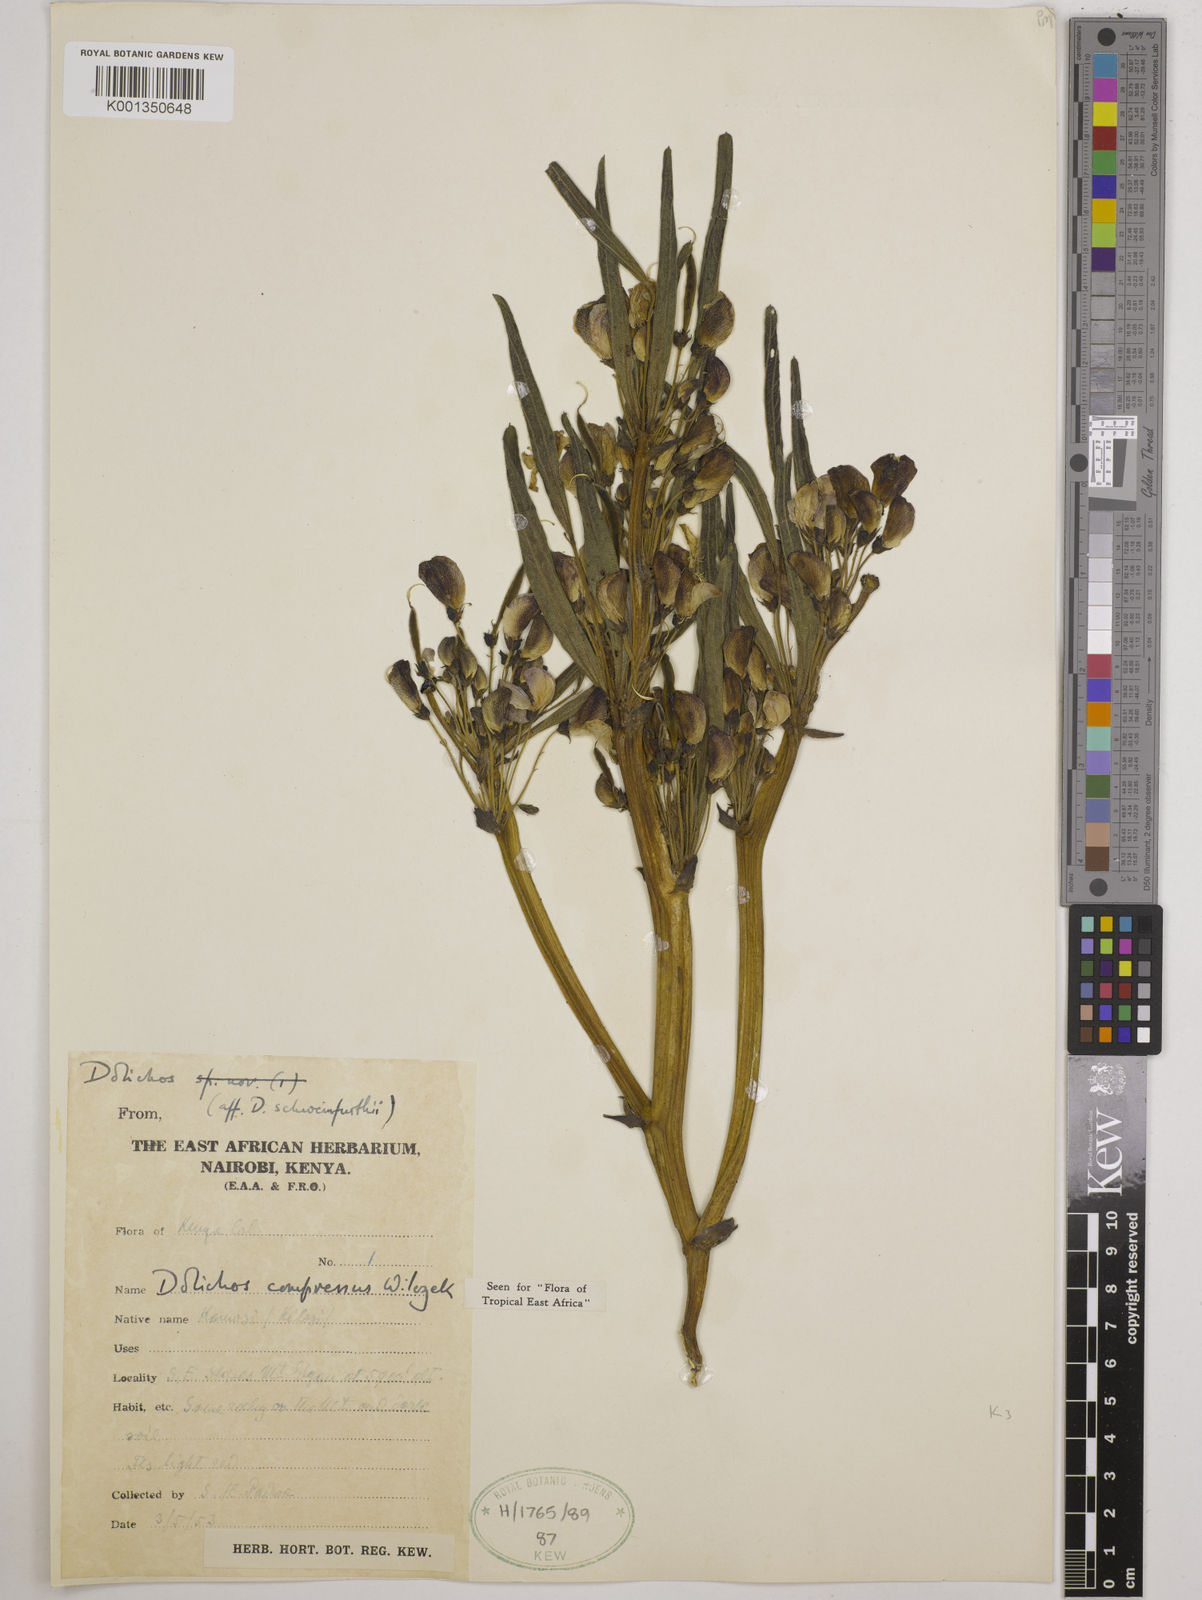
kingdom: Plantae
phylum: Tracheophyta
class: Magnoliopsida
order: Fabales
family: Fabaceae
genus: Dolichos
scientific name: Dolichos compressus
